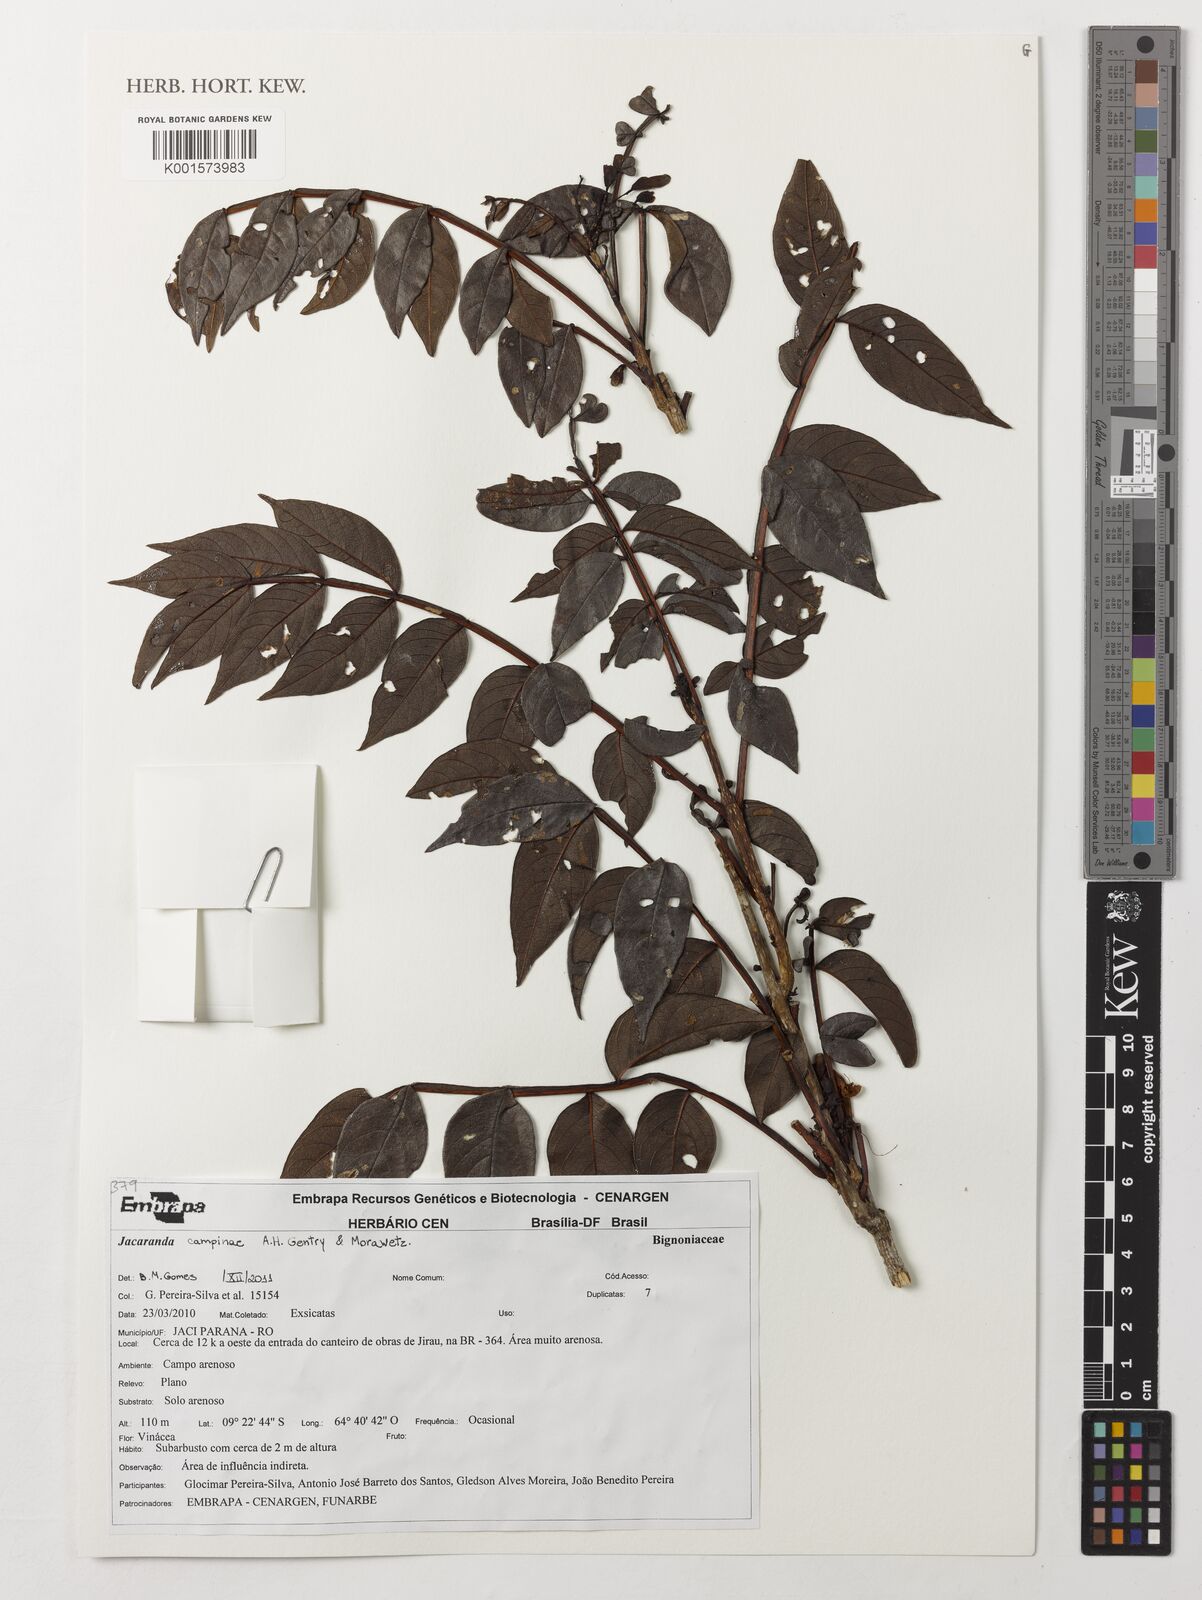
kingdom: Plantae
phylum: Tracheophyta
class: Magnoliopsida
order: Lamiales
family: Bignoniaceae
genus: Jacaranda
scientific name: Jacaranda campinae
